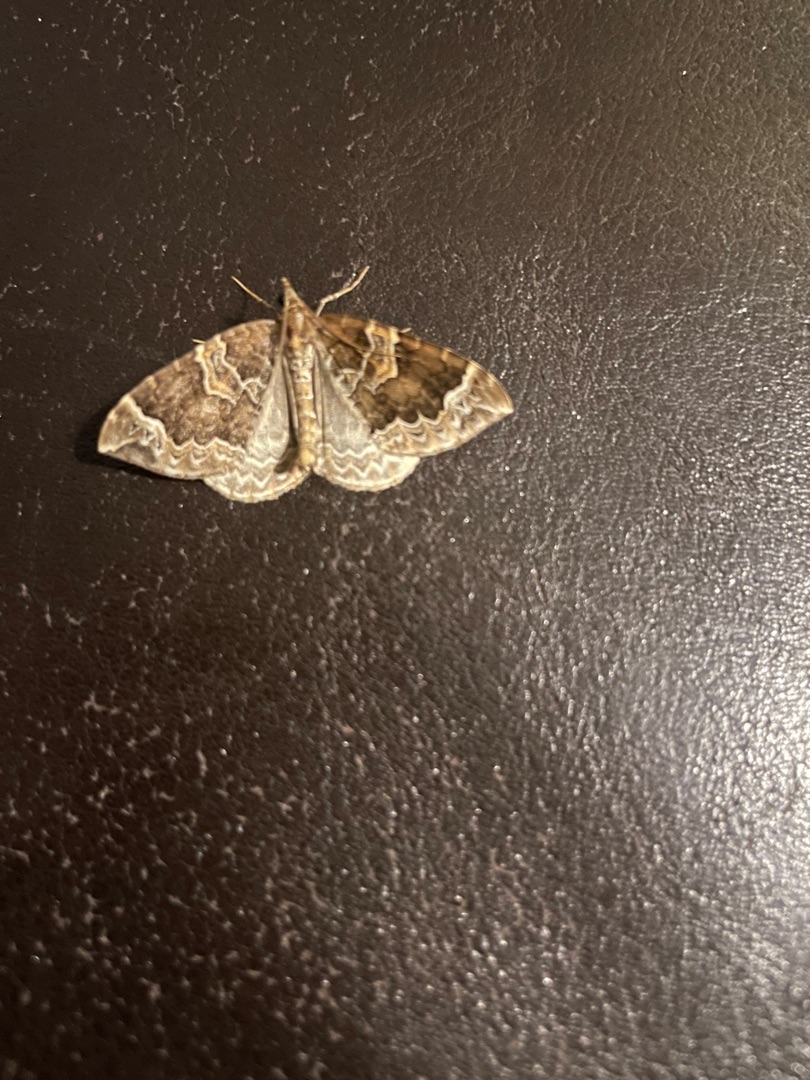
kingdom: Animalia
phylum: Arthropoda
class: Insecta
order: Lepidoptera
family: Geometridae
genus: Eulithis
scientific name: Eulithis prunata
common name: Broget havemåler
